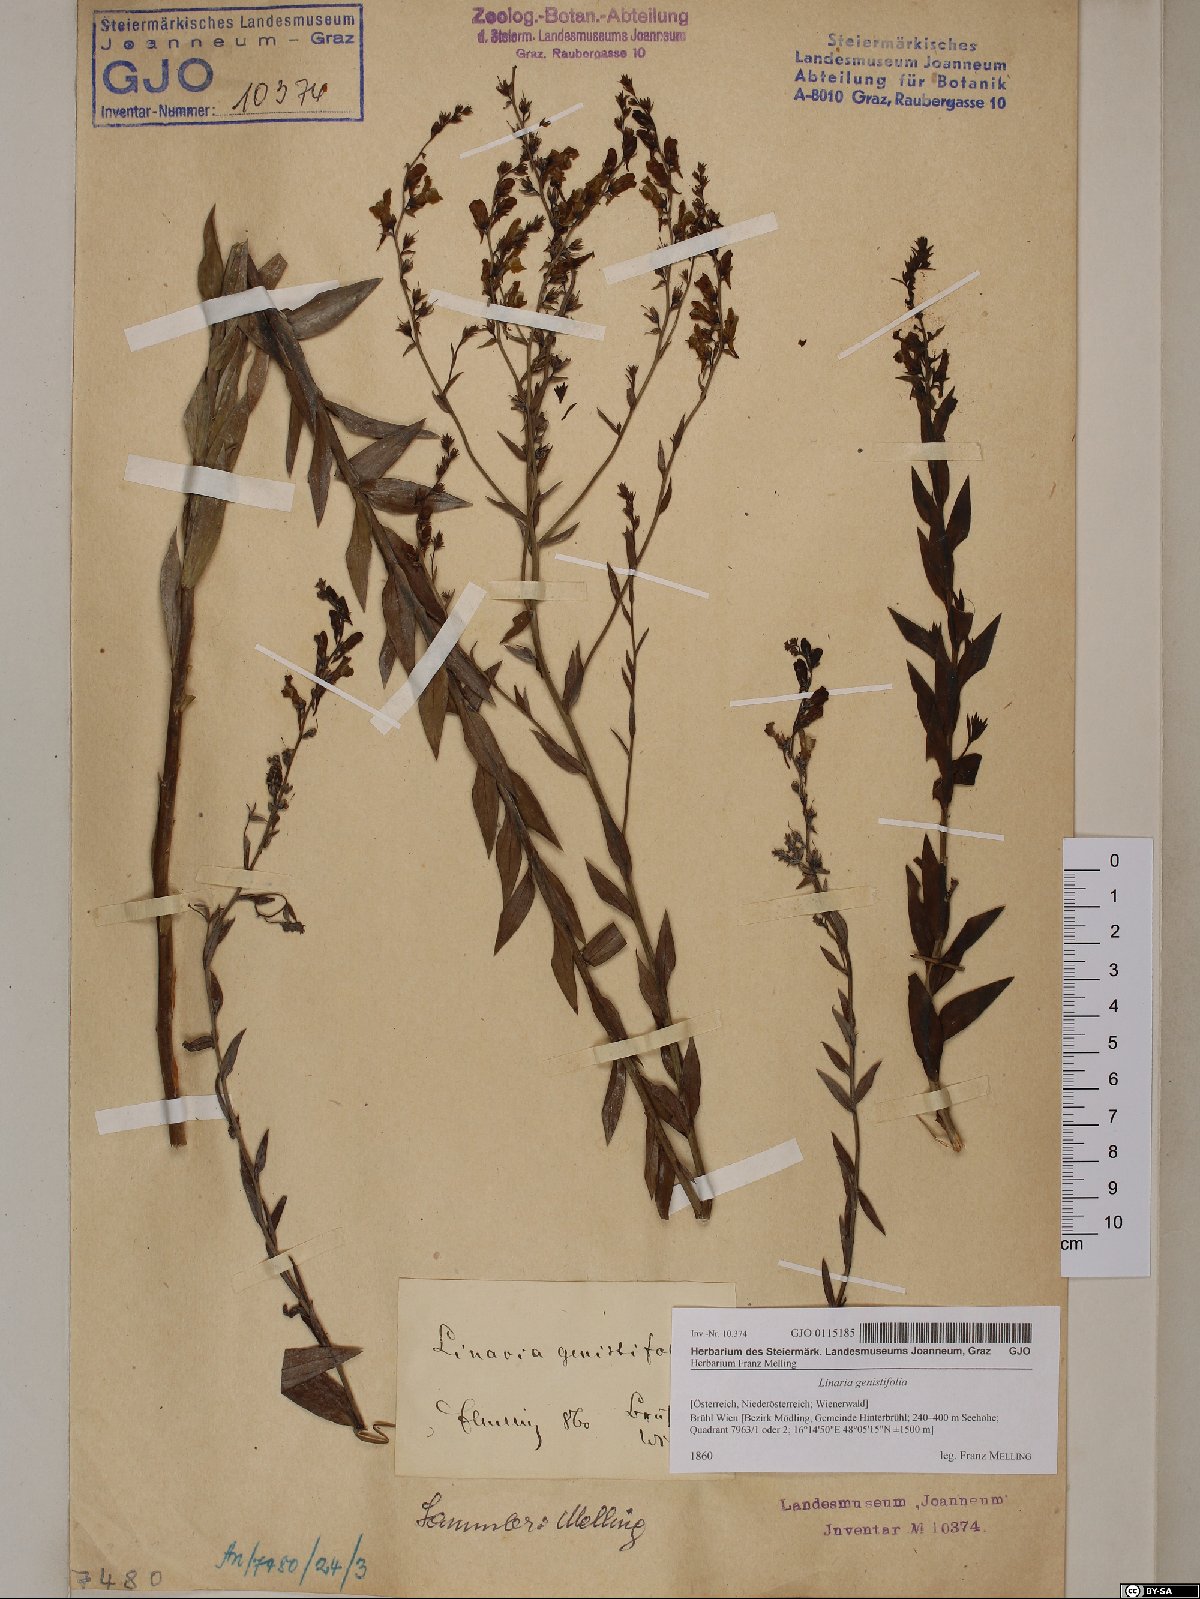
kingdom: Plantae
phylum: Tracheophyta
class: Magnoliopsida
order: Lamiales
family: Plantaginaceae
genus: Linaria
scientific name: Linaria genistifolia
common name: Broomleaf toadflax
